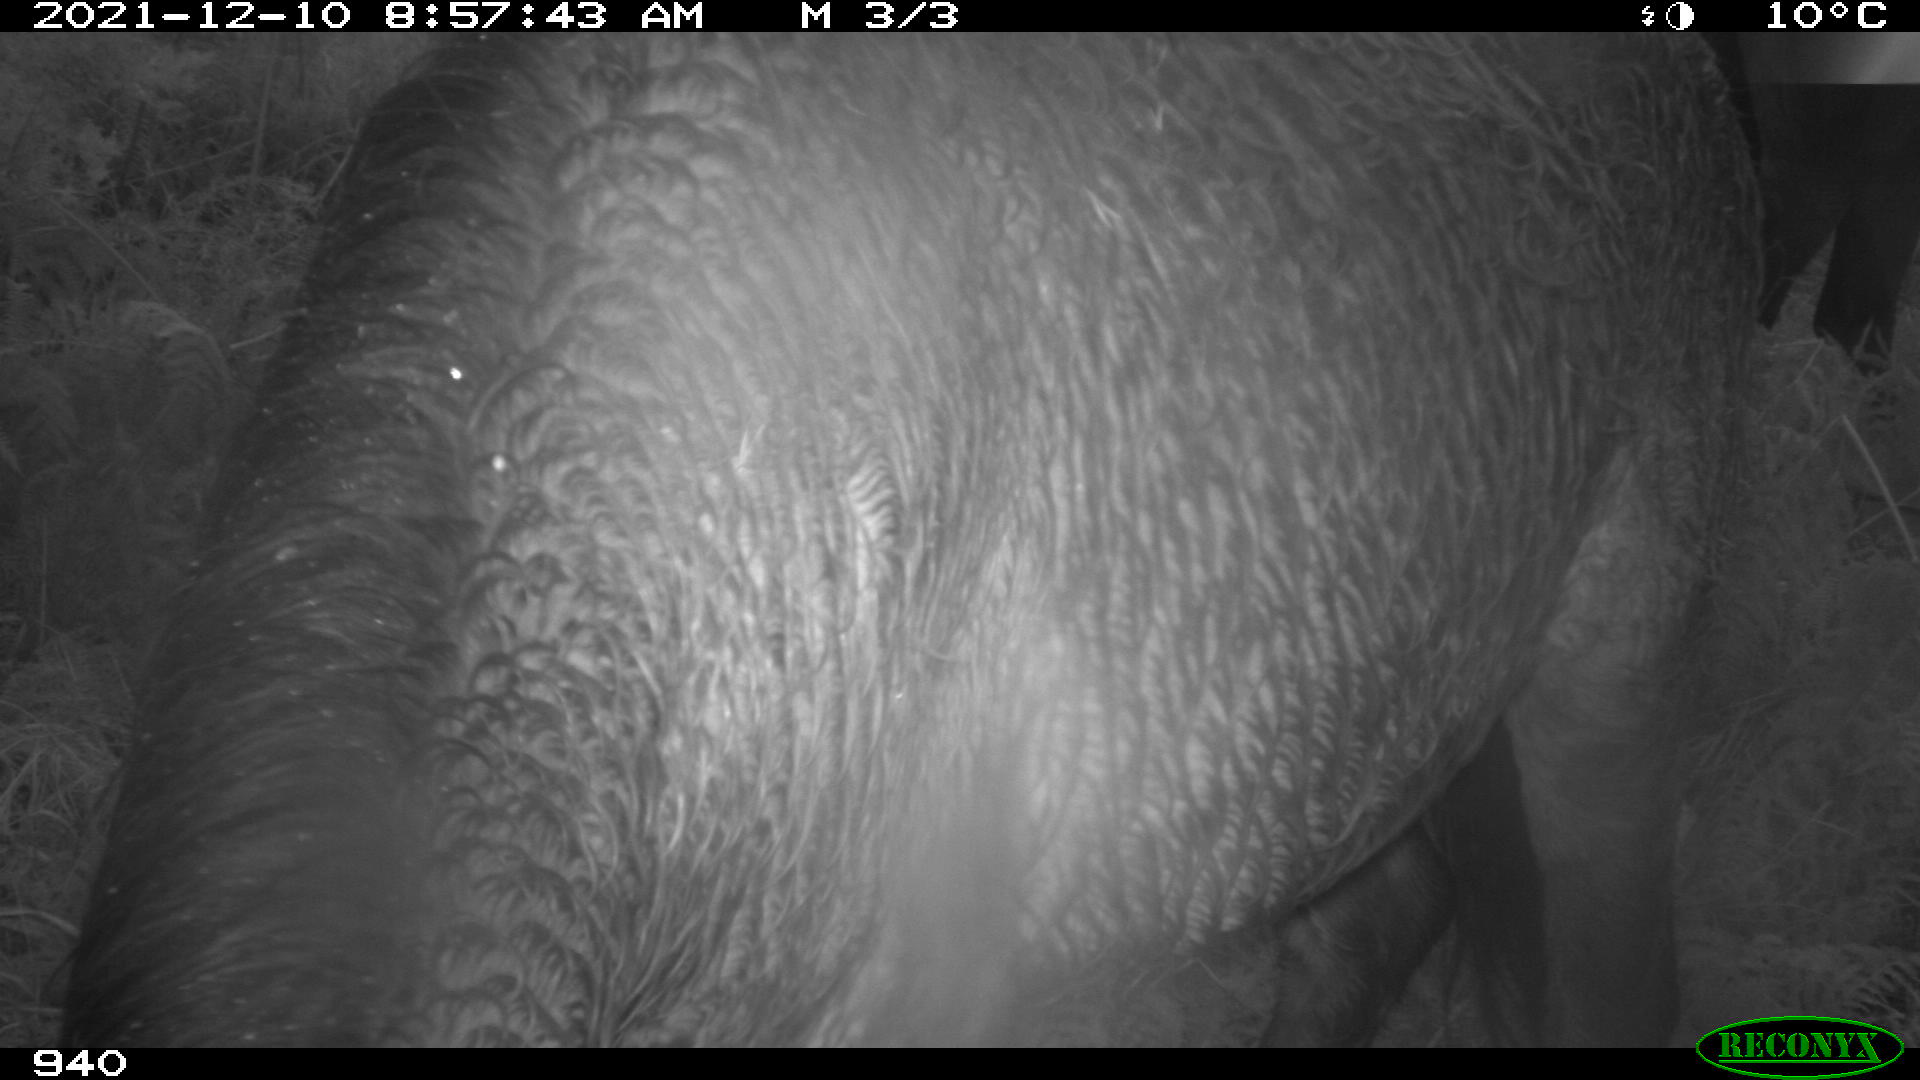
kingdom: Animalia
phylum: Chordata
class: Mammalia
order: Perissodactyla
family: Equidae
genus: Equus
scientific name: Equus caballus
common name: Horse
